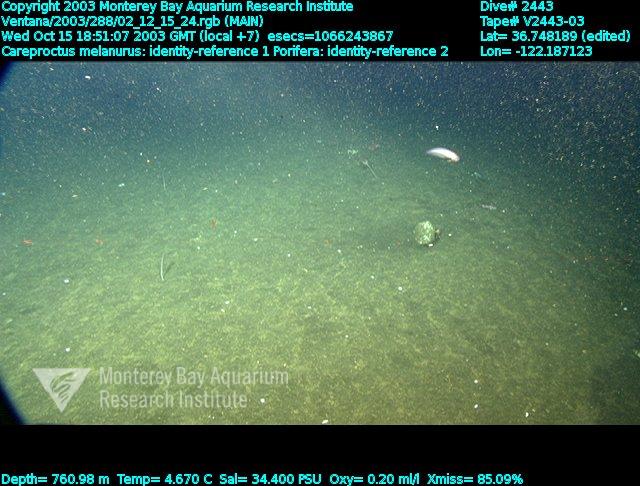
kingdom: Animalia
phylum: Porifera
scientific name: Porifera
